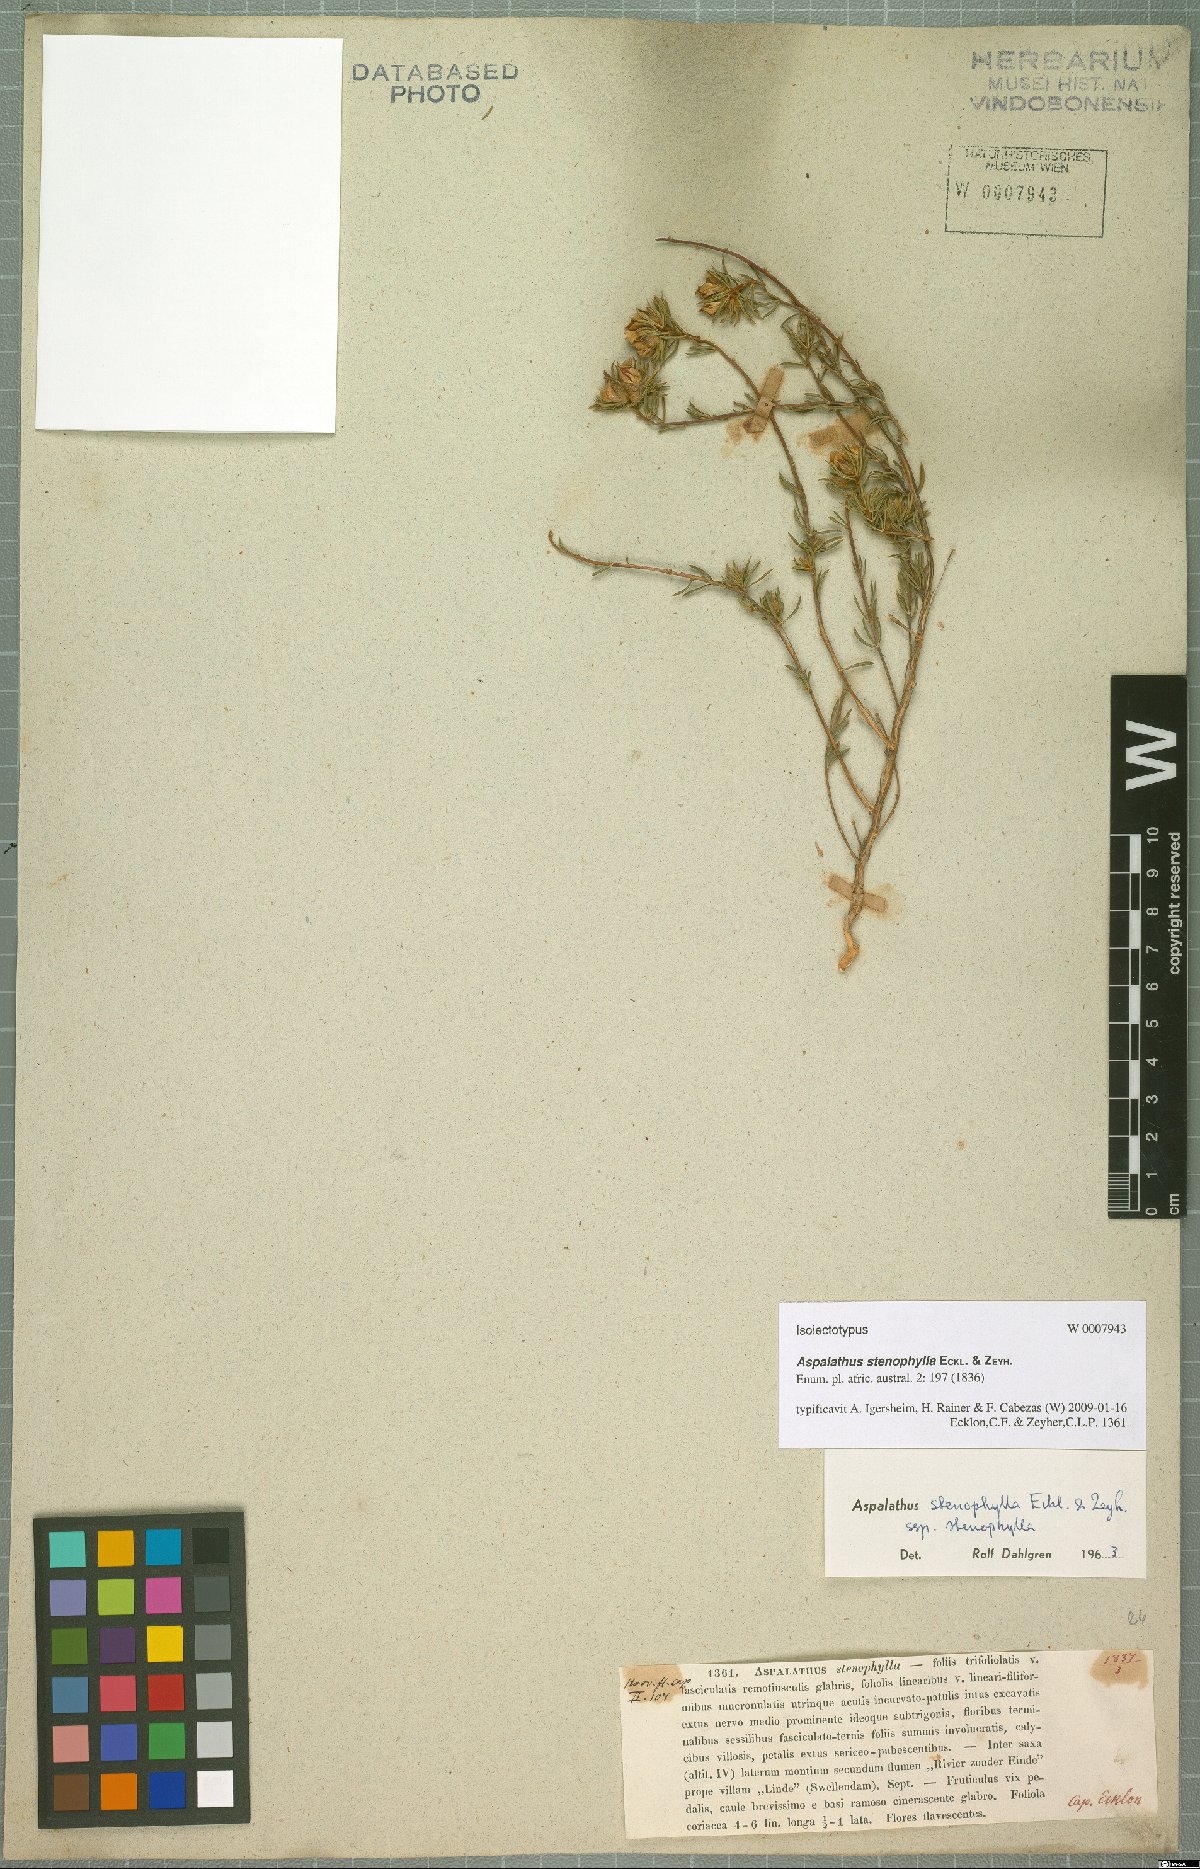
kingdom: Plantae
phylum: Tracheophyta
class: Magnoliopsida
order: Fabales
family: Fabaceae
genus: Aspalathus
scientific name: Aspalathus stenophylla
